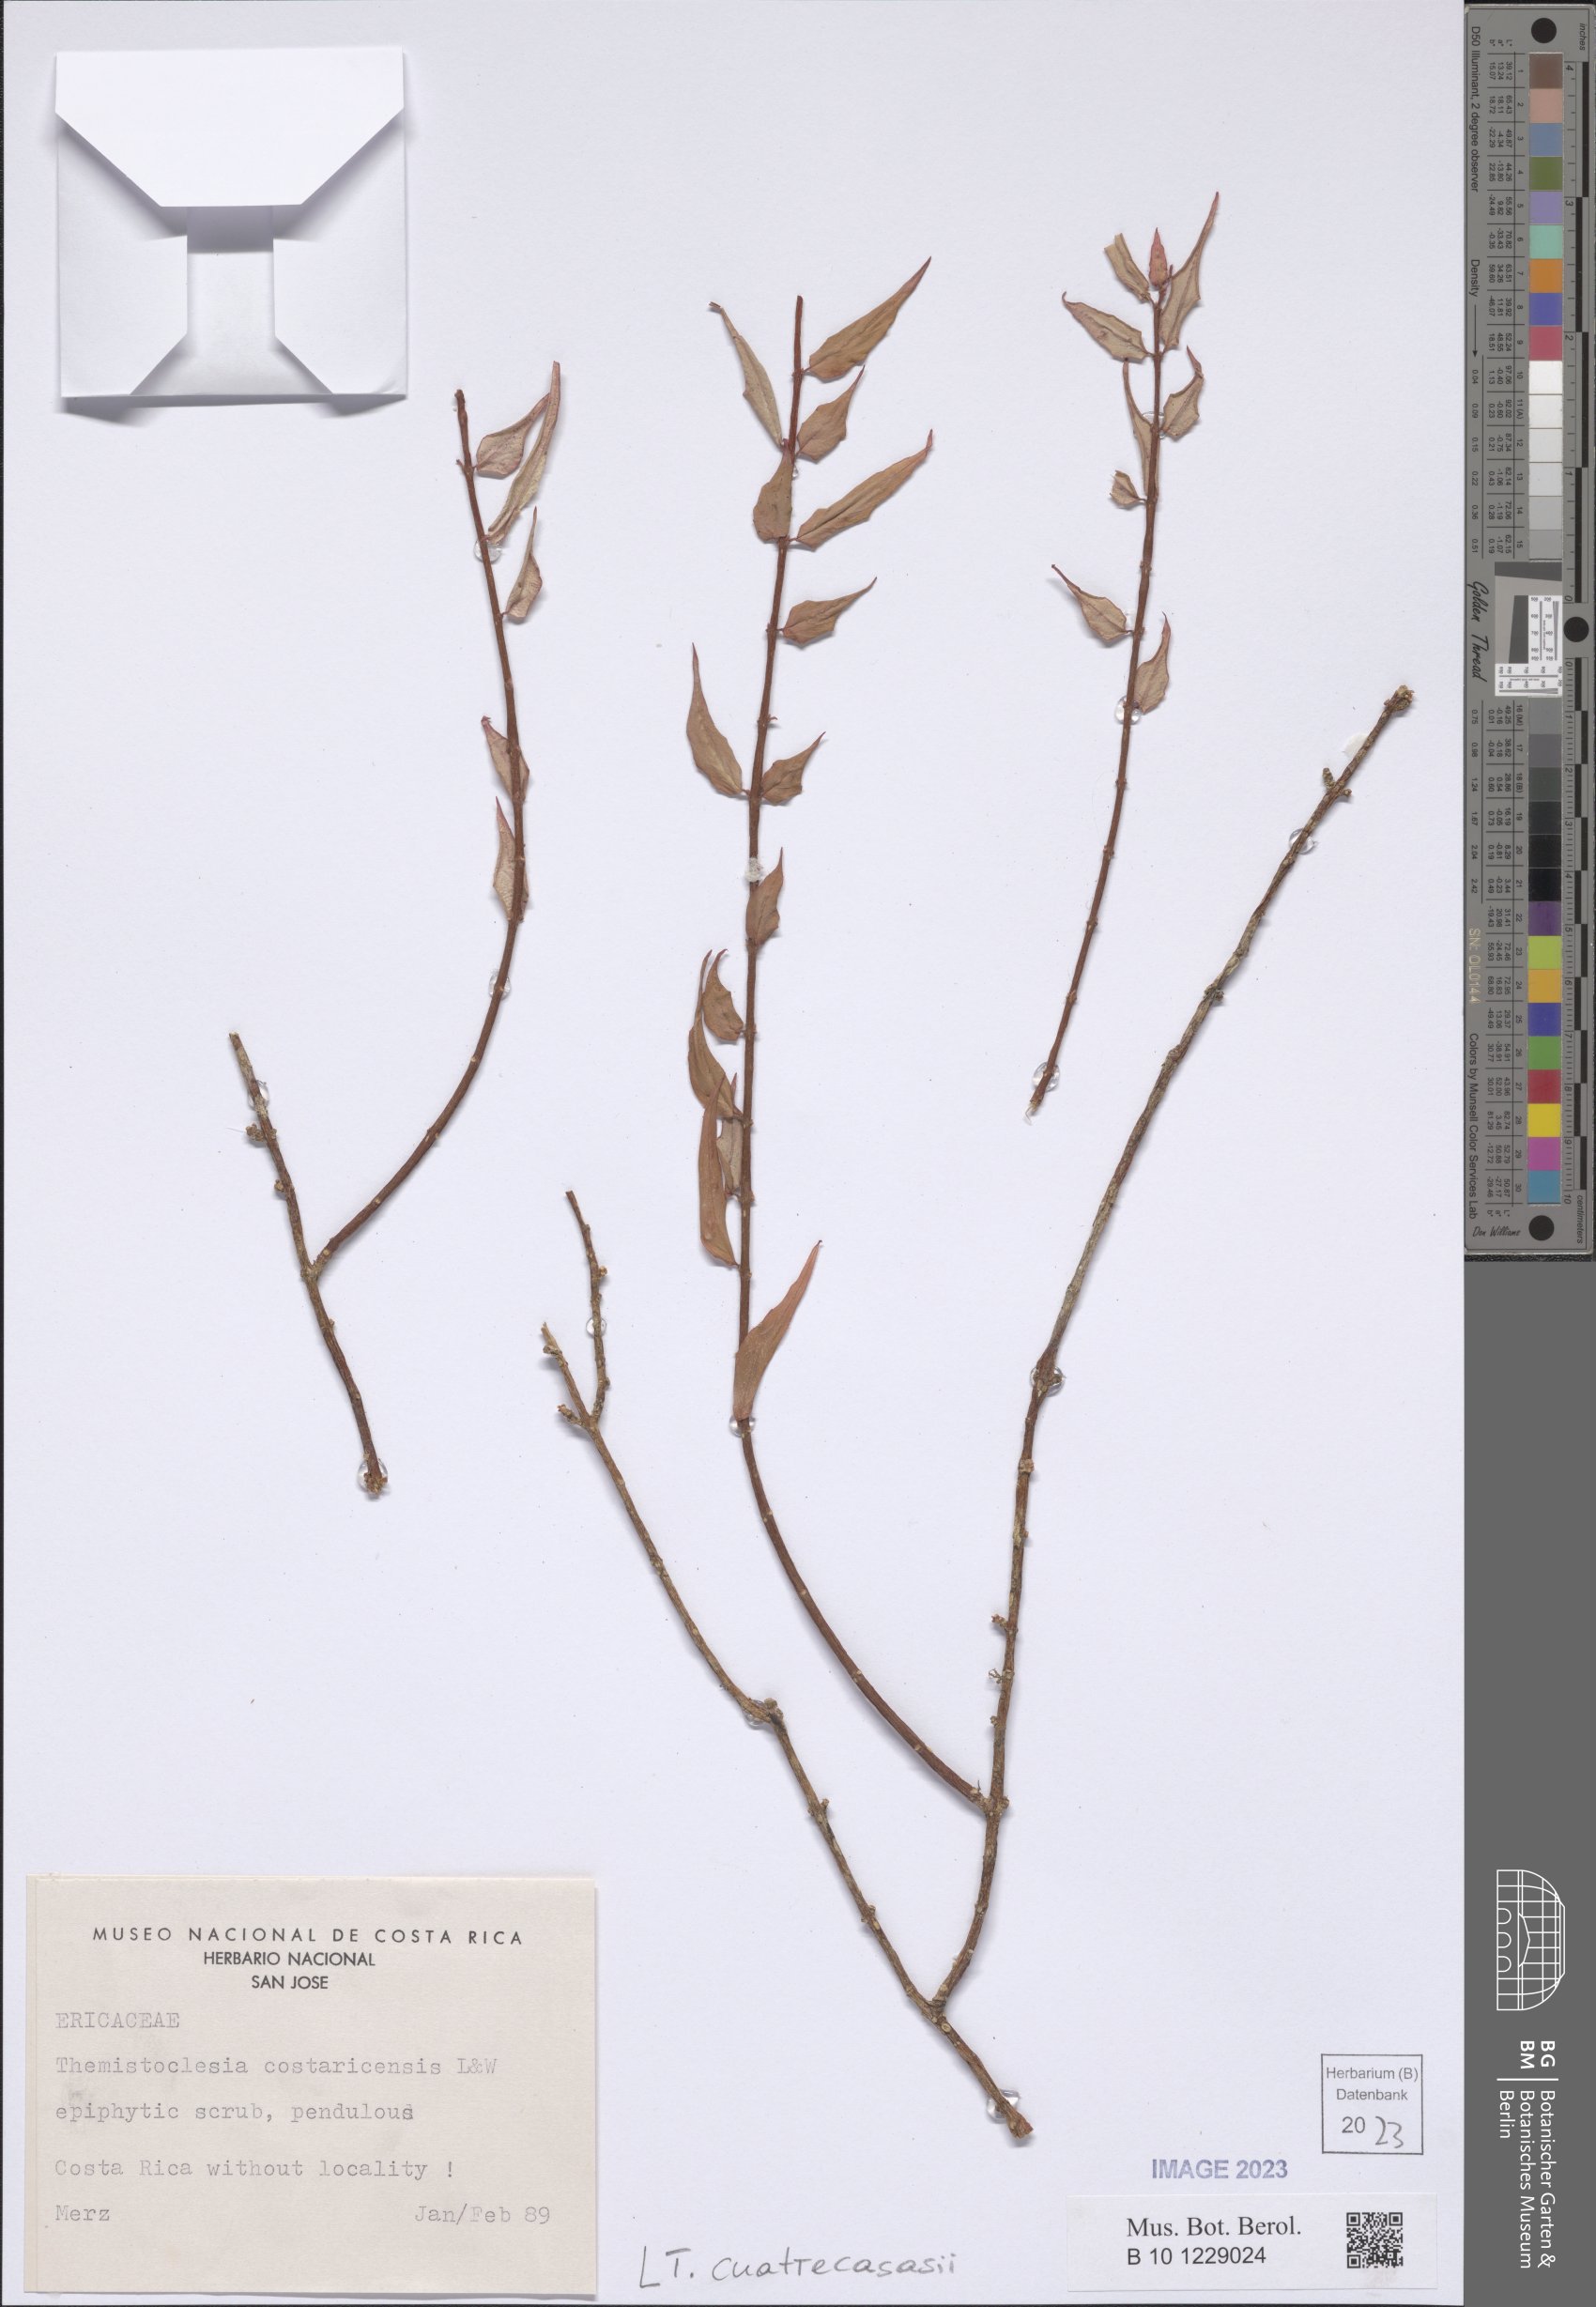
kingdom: Plantae
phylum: Tracheophyta
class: Magnoliopsida
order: Ericales
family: Ericaceae
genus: Themistoclesia
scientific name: Themistoclesia cuatrecasasii
